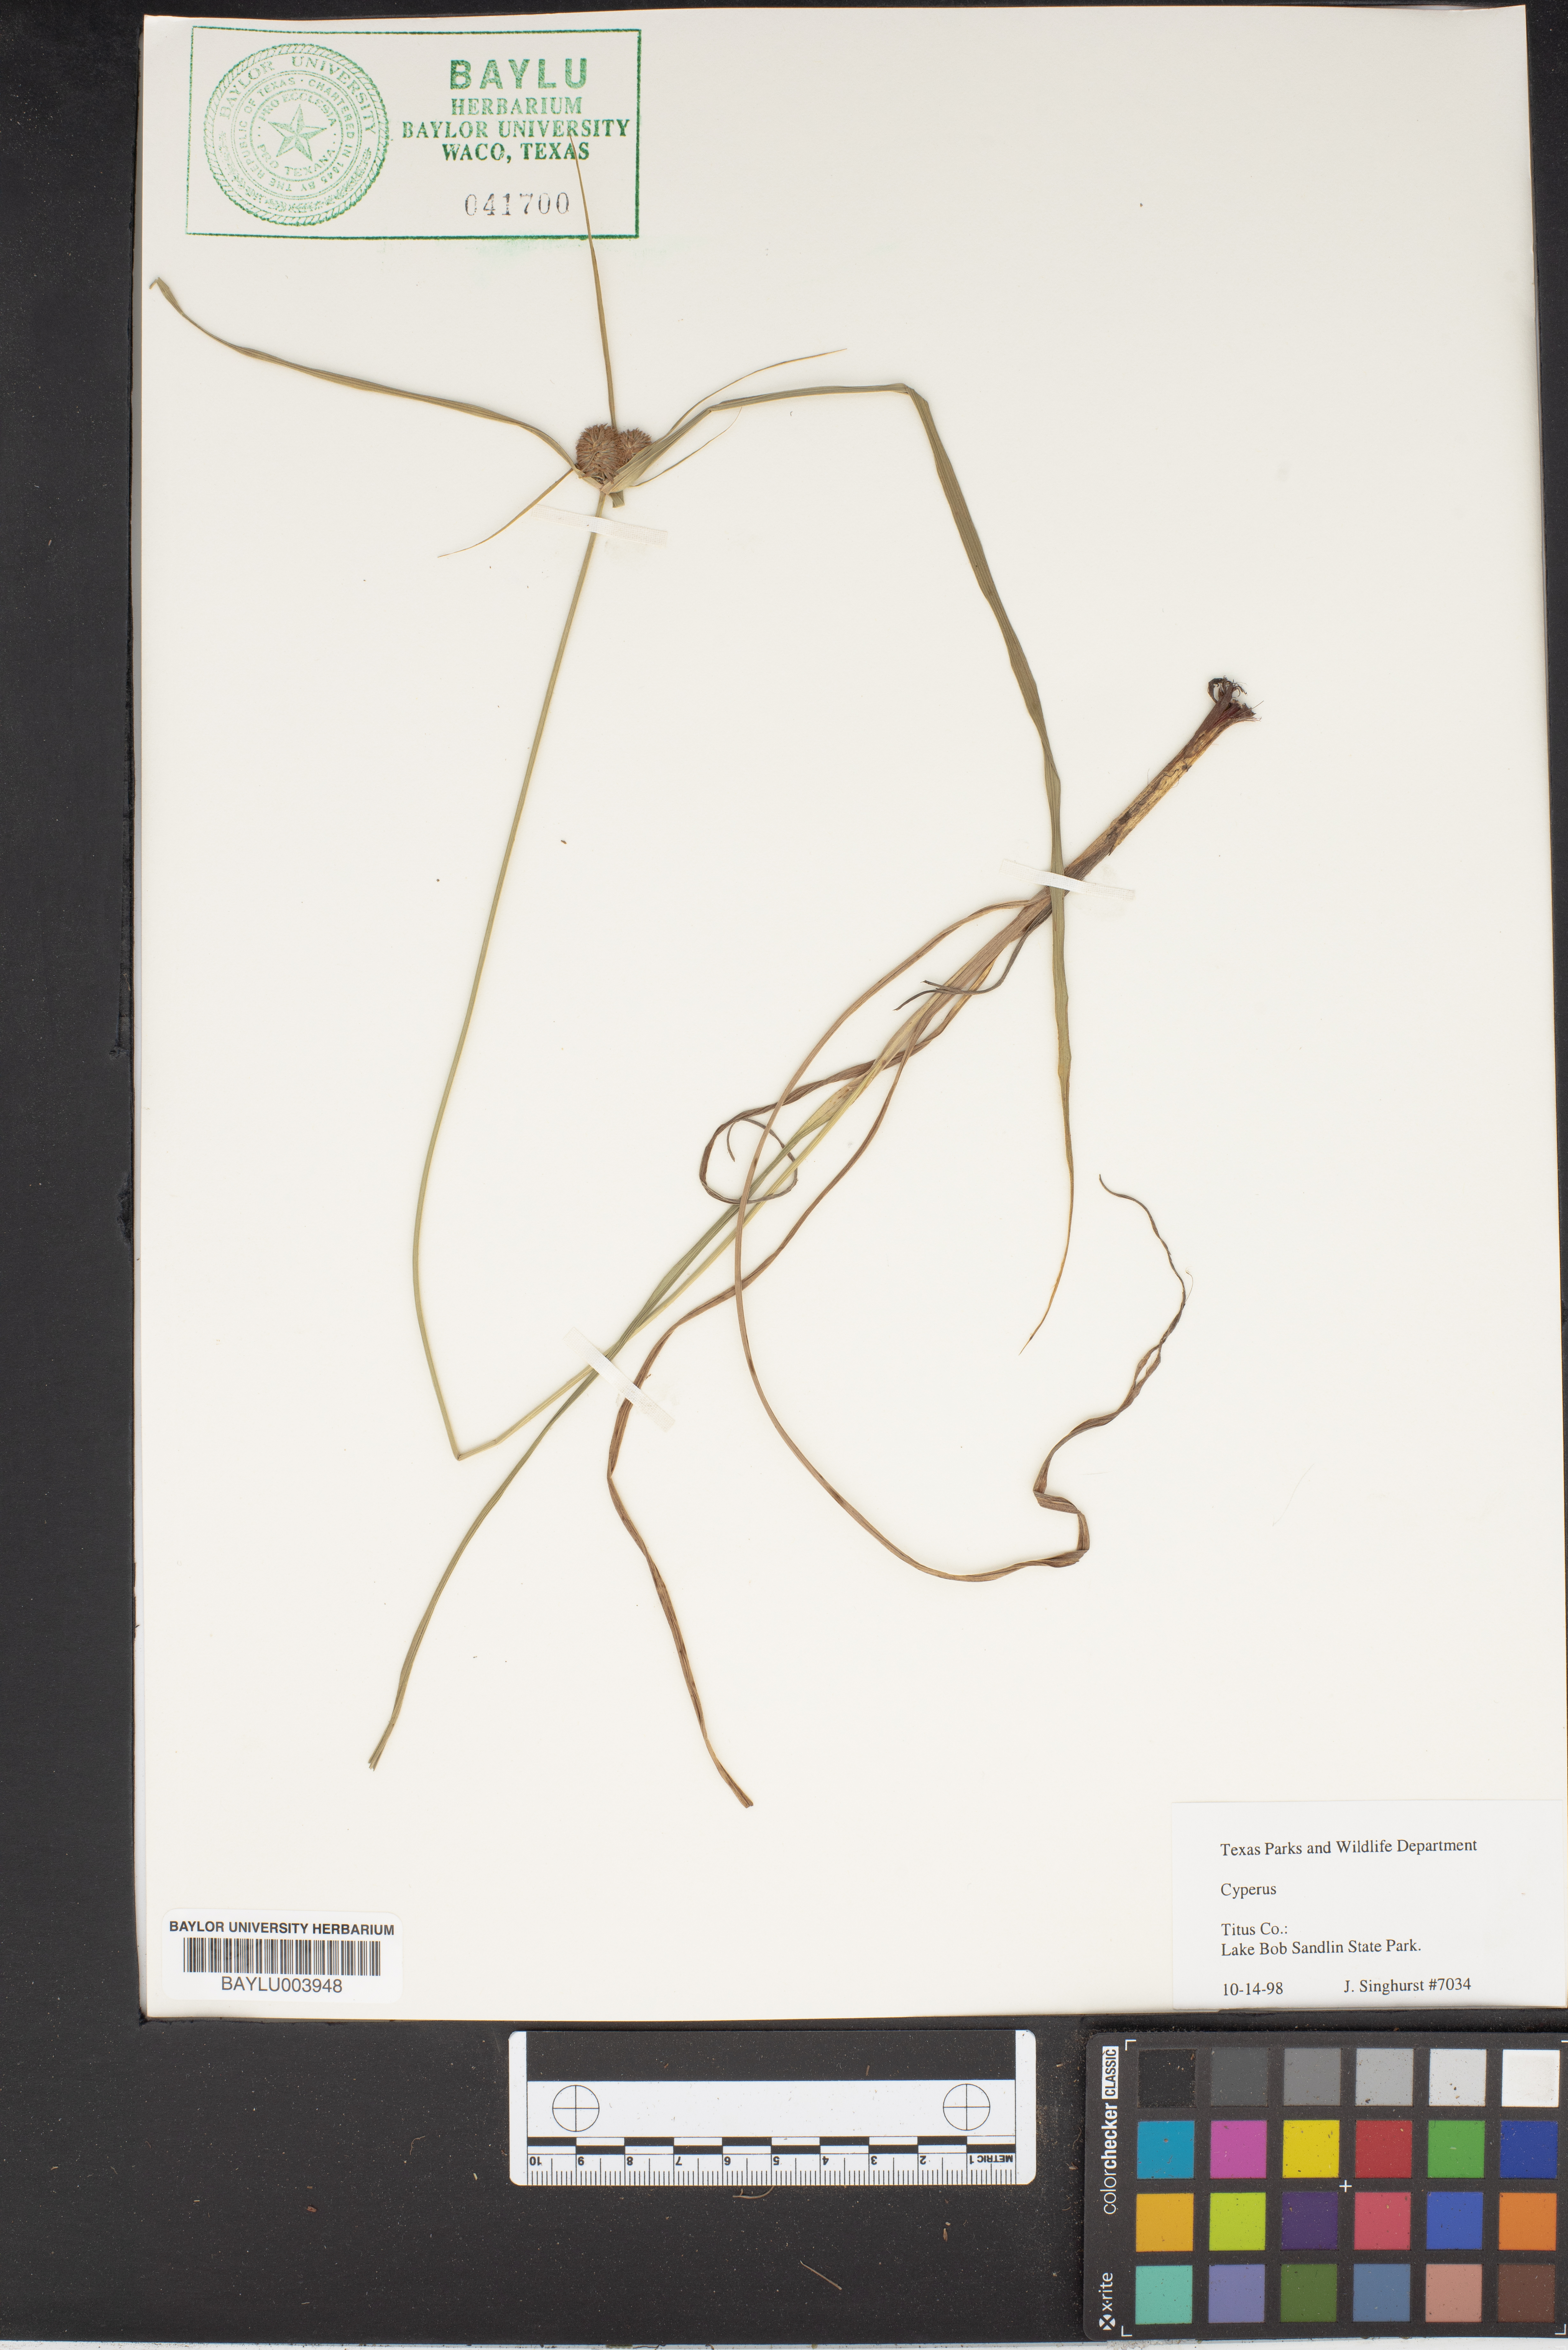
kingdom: Plantae
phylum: Tracheophyta
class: Liliopsida
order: Poales
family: Cyperaceae
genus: Cyperus
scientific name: Cyperus
